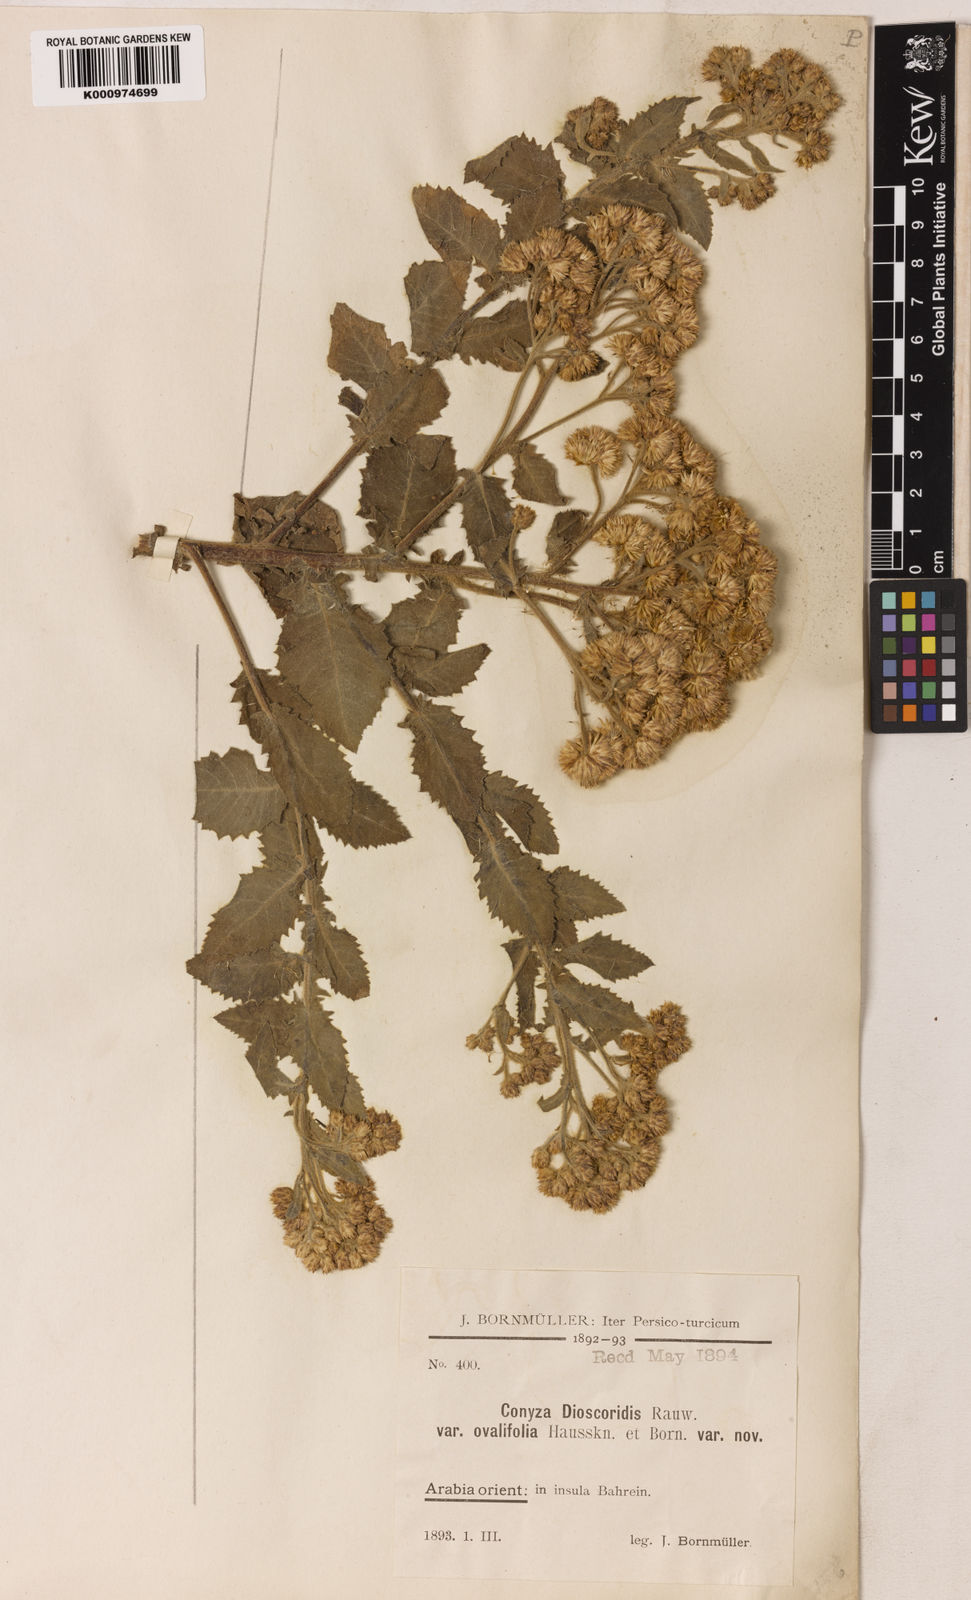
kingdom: Plantae
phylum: Tracheophyta
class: Magnoliopsida
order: Asterales
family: Asteraceae
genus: Pluchea
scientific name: Pluchea ovalis
